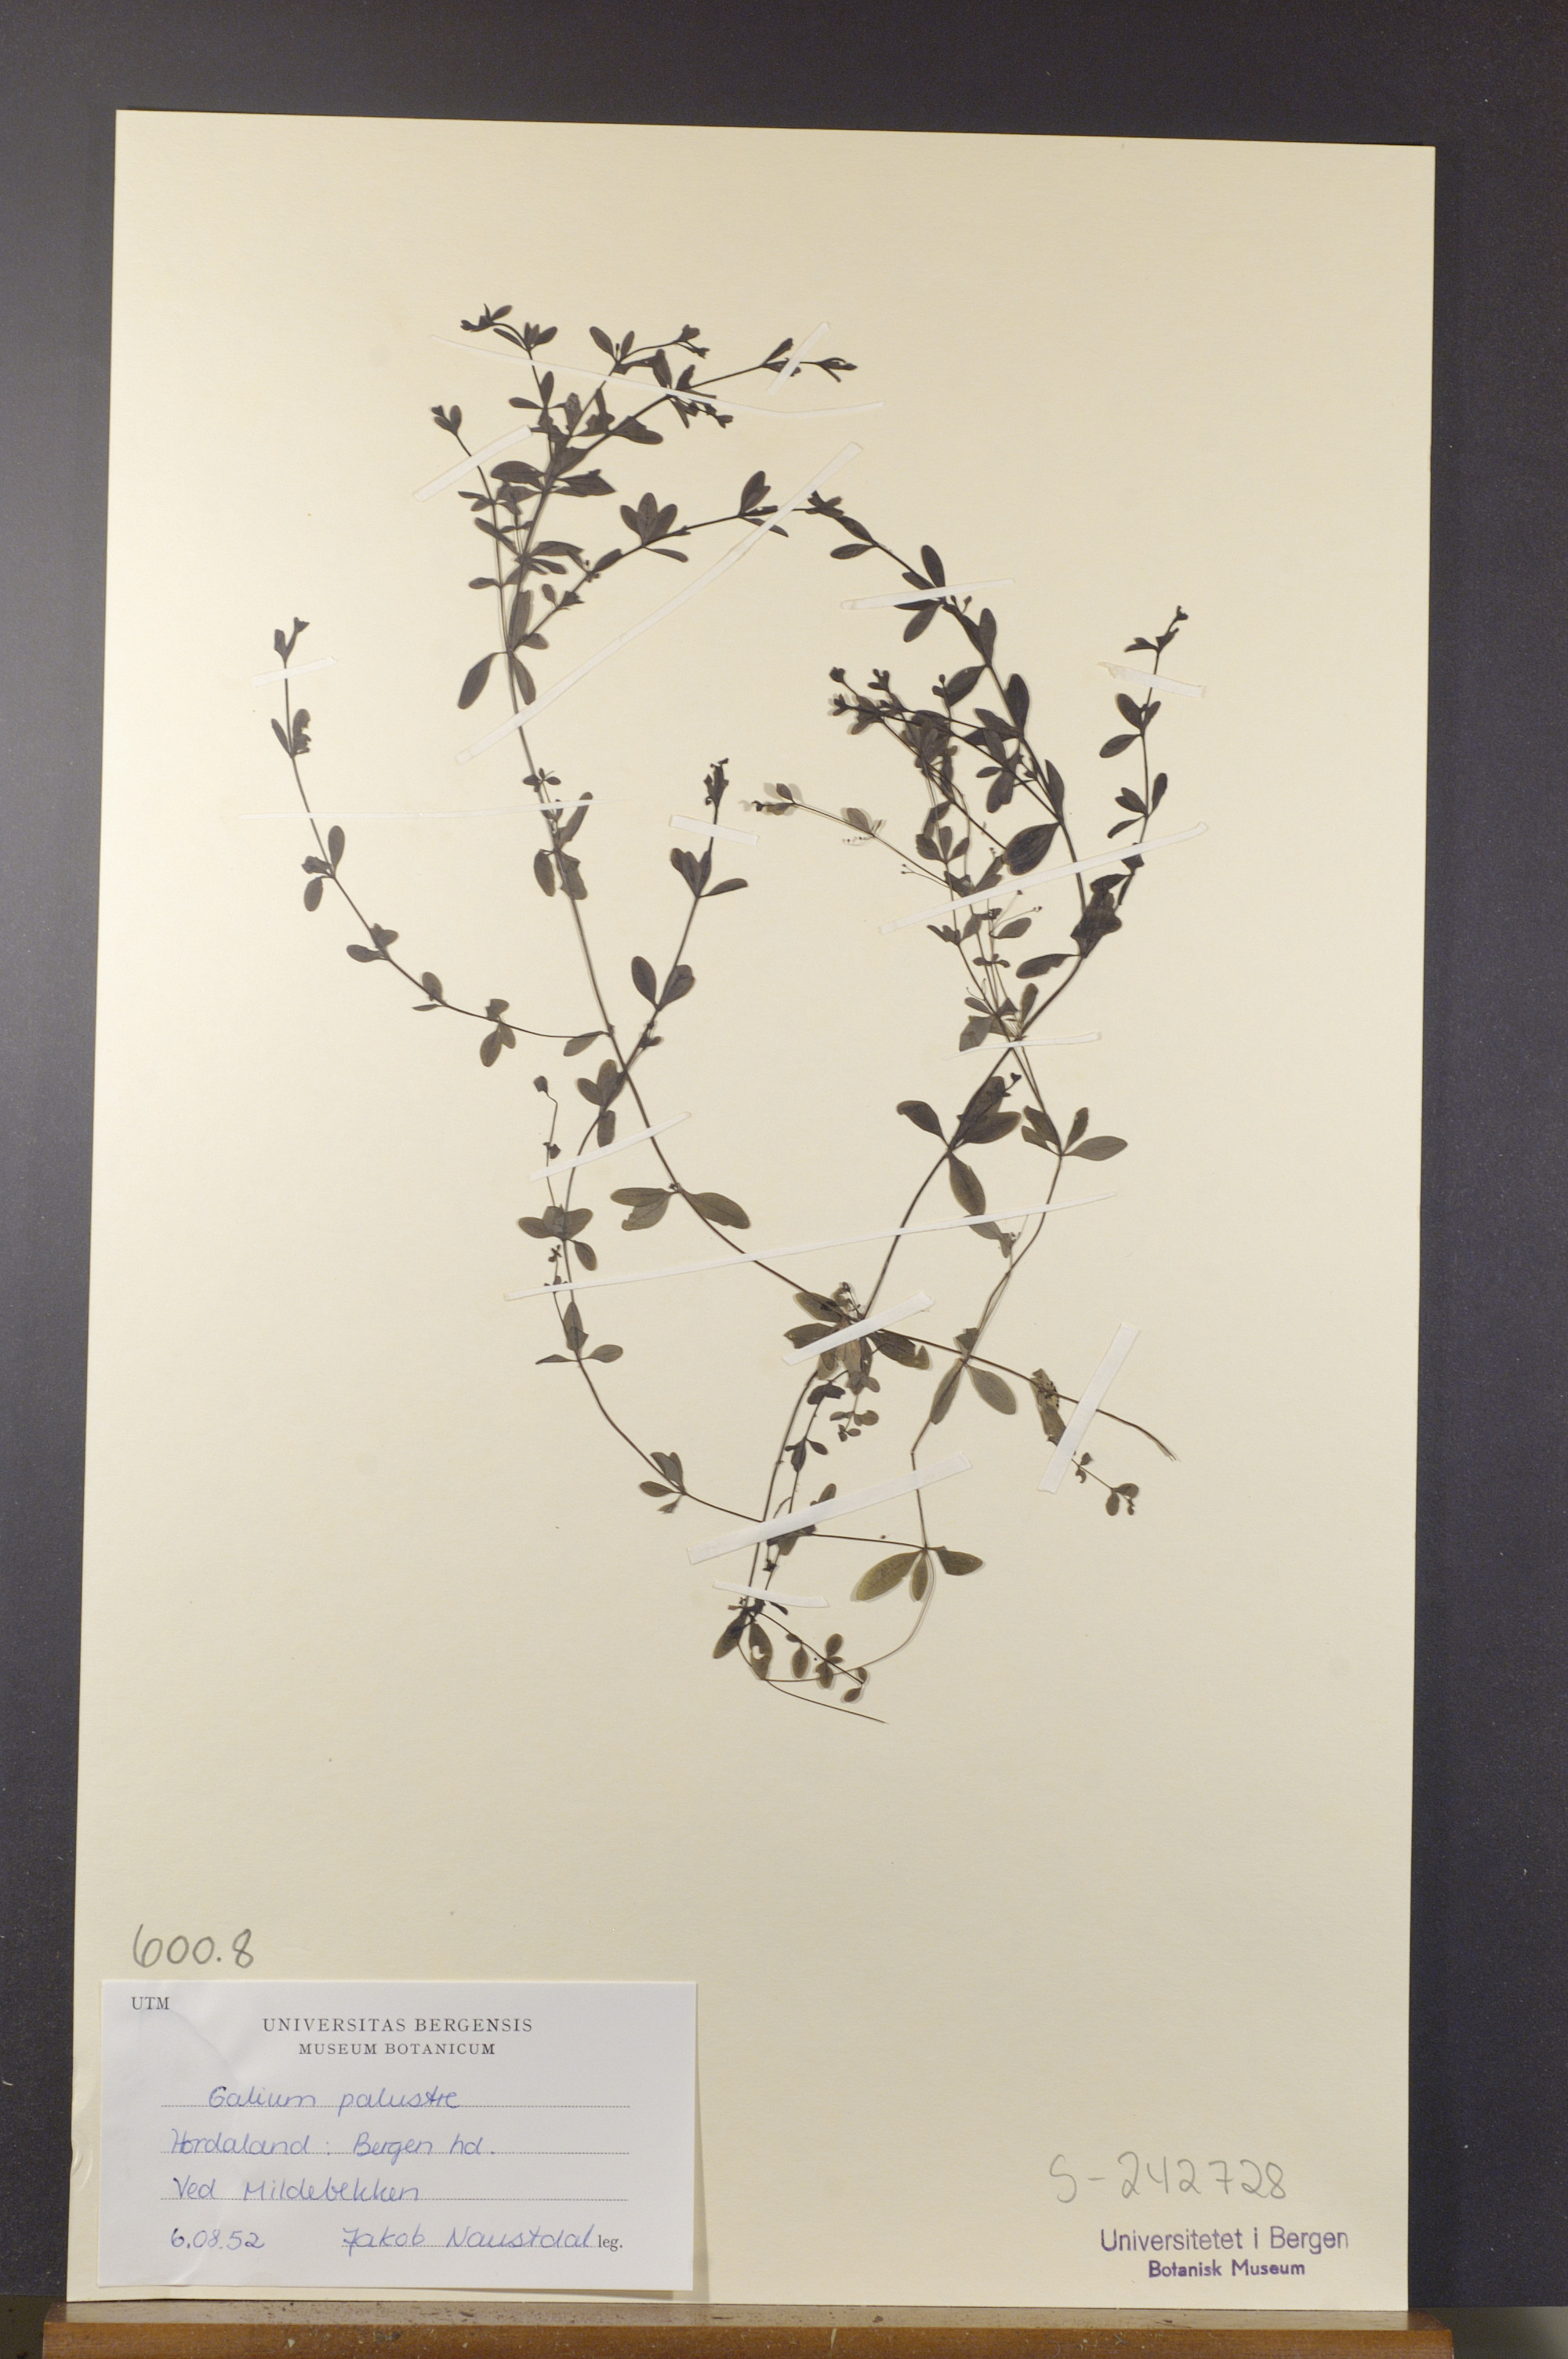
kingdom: Plantae
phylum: Tracheophyta
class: Magnoliopsida
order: Gentianales
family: Rubiaceae
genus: Galium
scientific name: Galium palustre
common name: Common marsh-bedstraw
